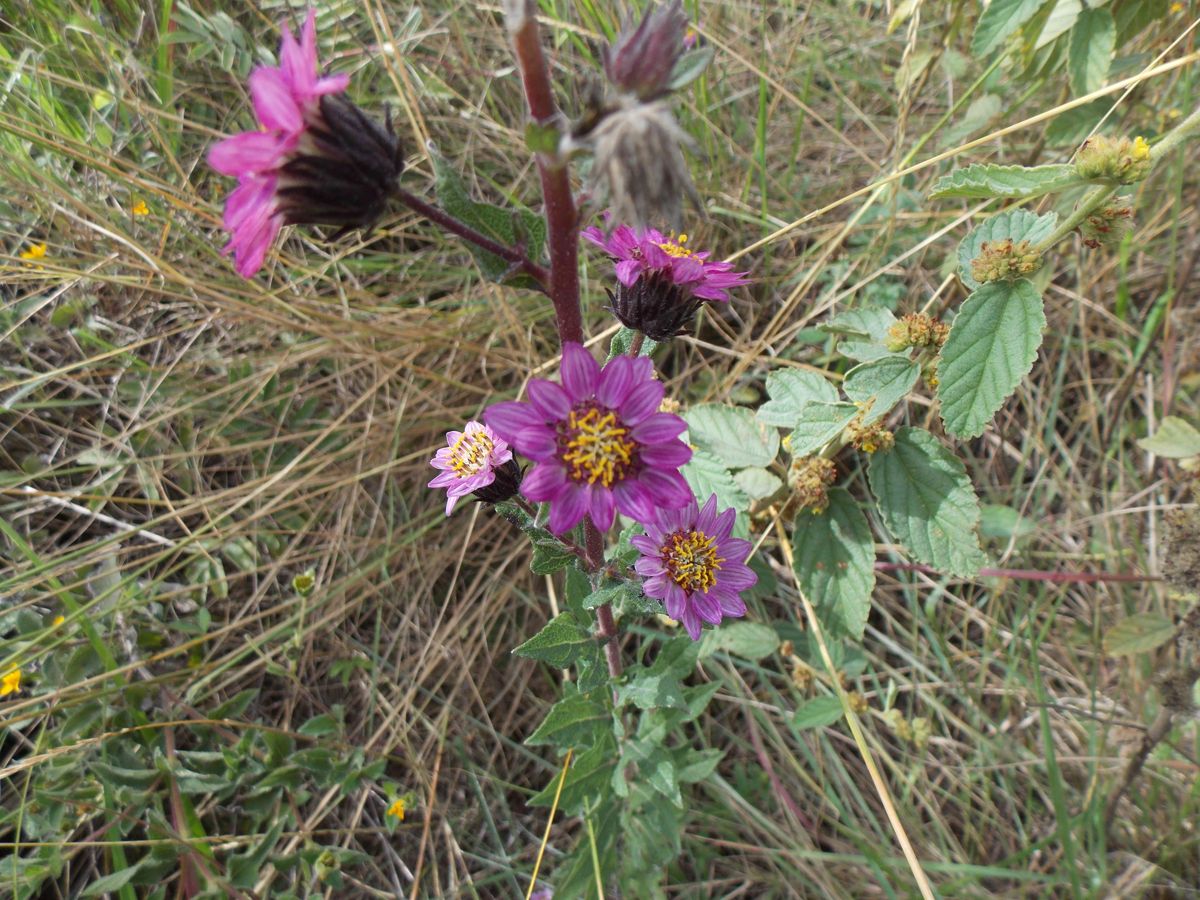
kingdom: Plantae
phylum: Tracheophyta
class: Magnoliopsida
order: Asterales
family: Asteraceae
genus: Simsia
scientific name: Simsia sanguinea
